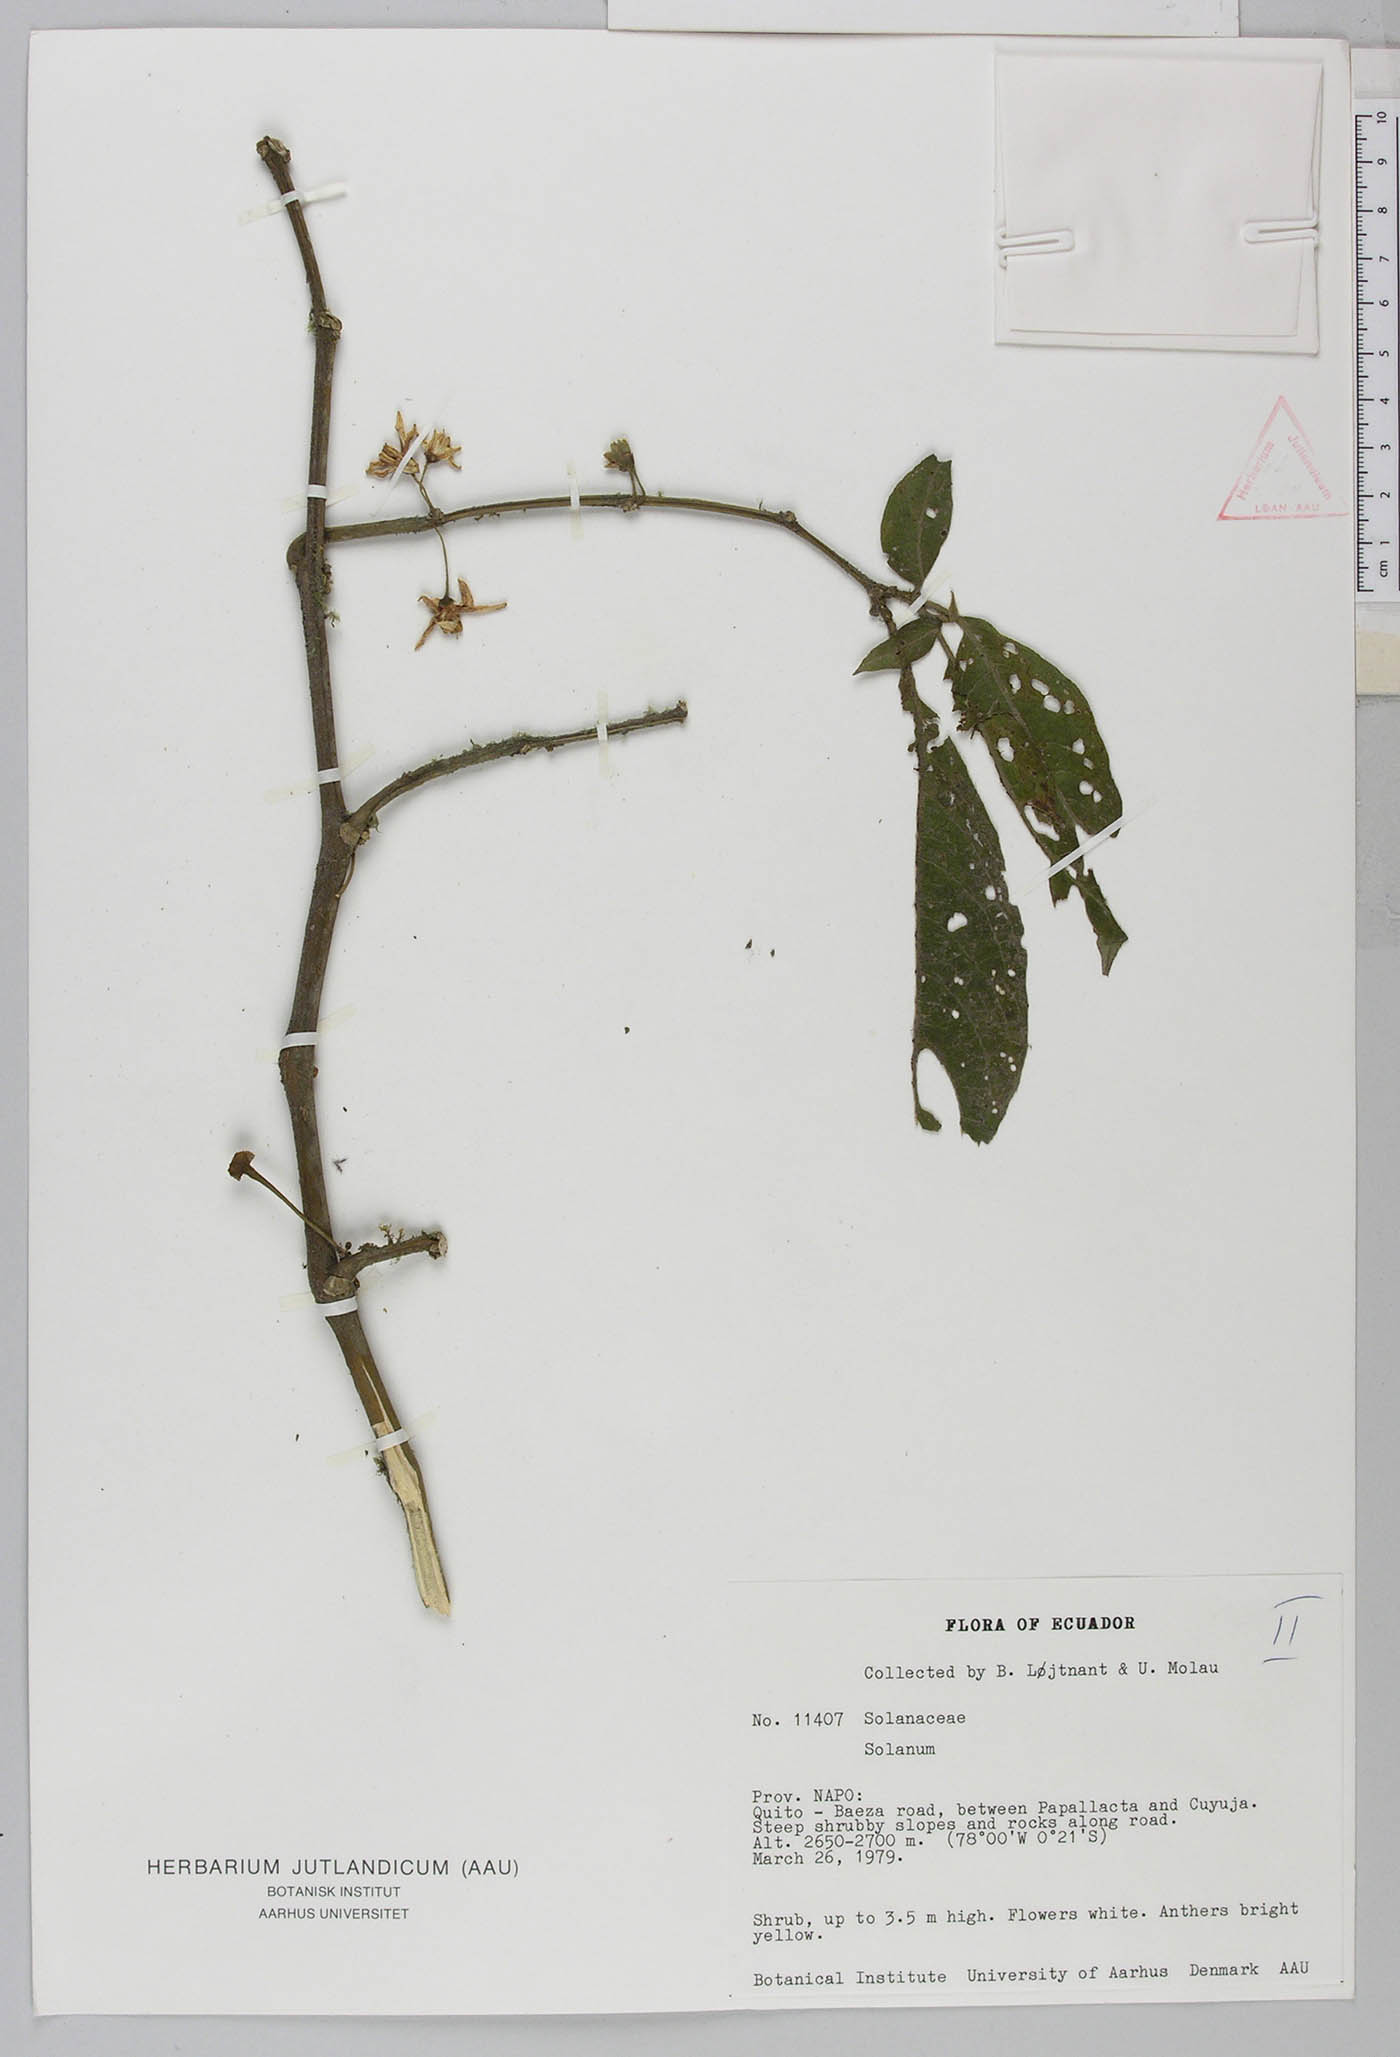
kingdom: Plantae
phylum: Tracheophyta
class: Magnoliopsida
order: Solanales
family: Solanaceae
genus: Lycianthes
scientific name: Lycianthes
